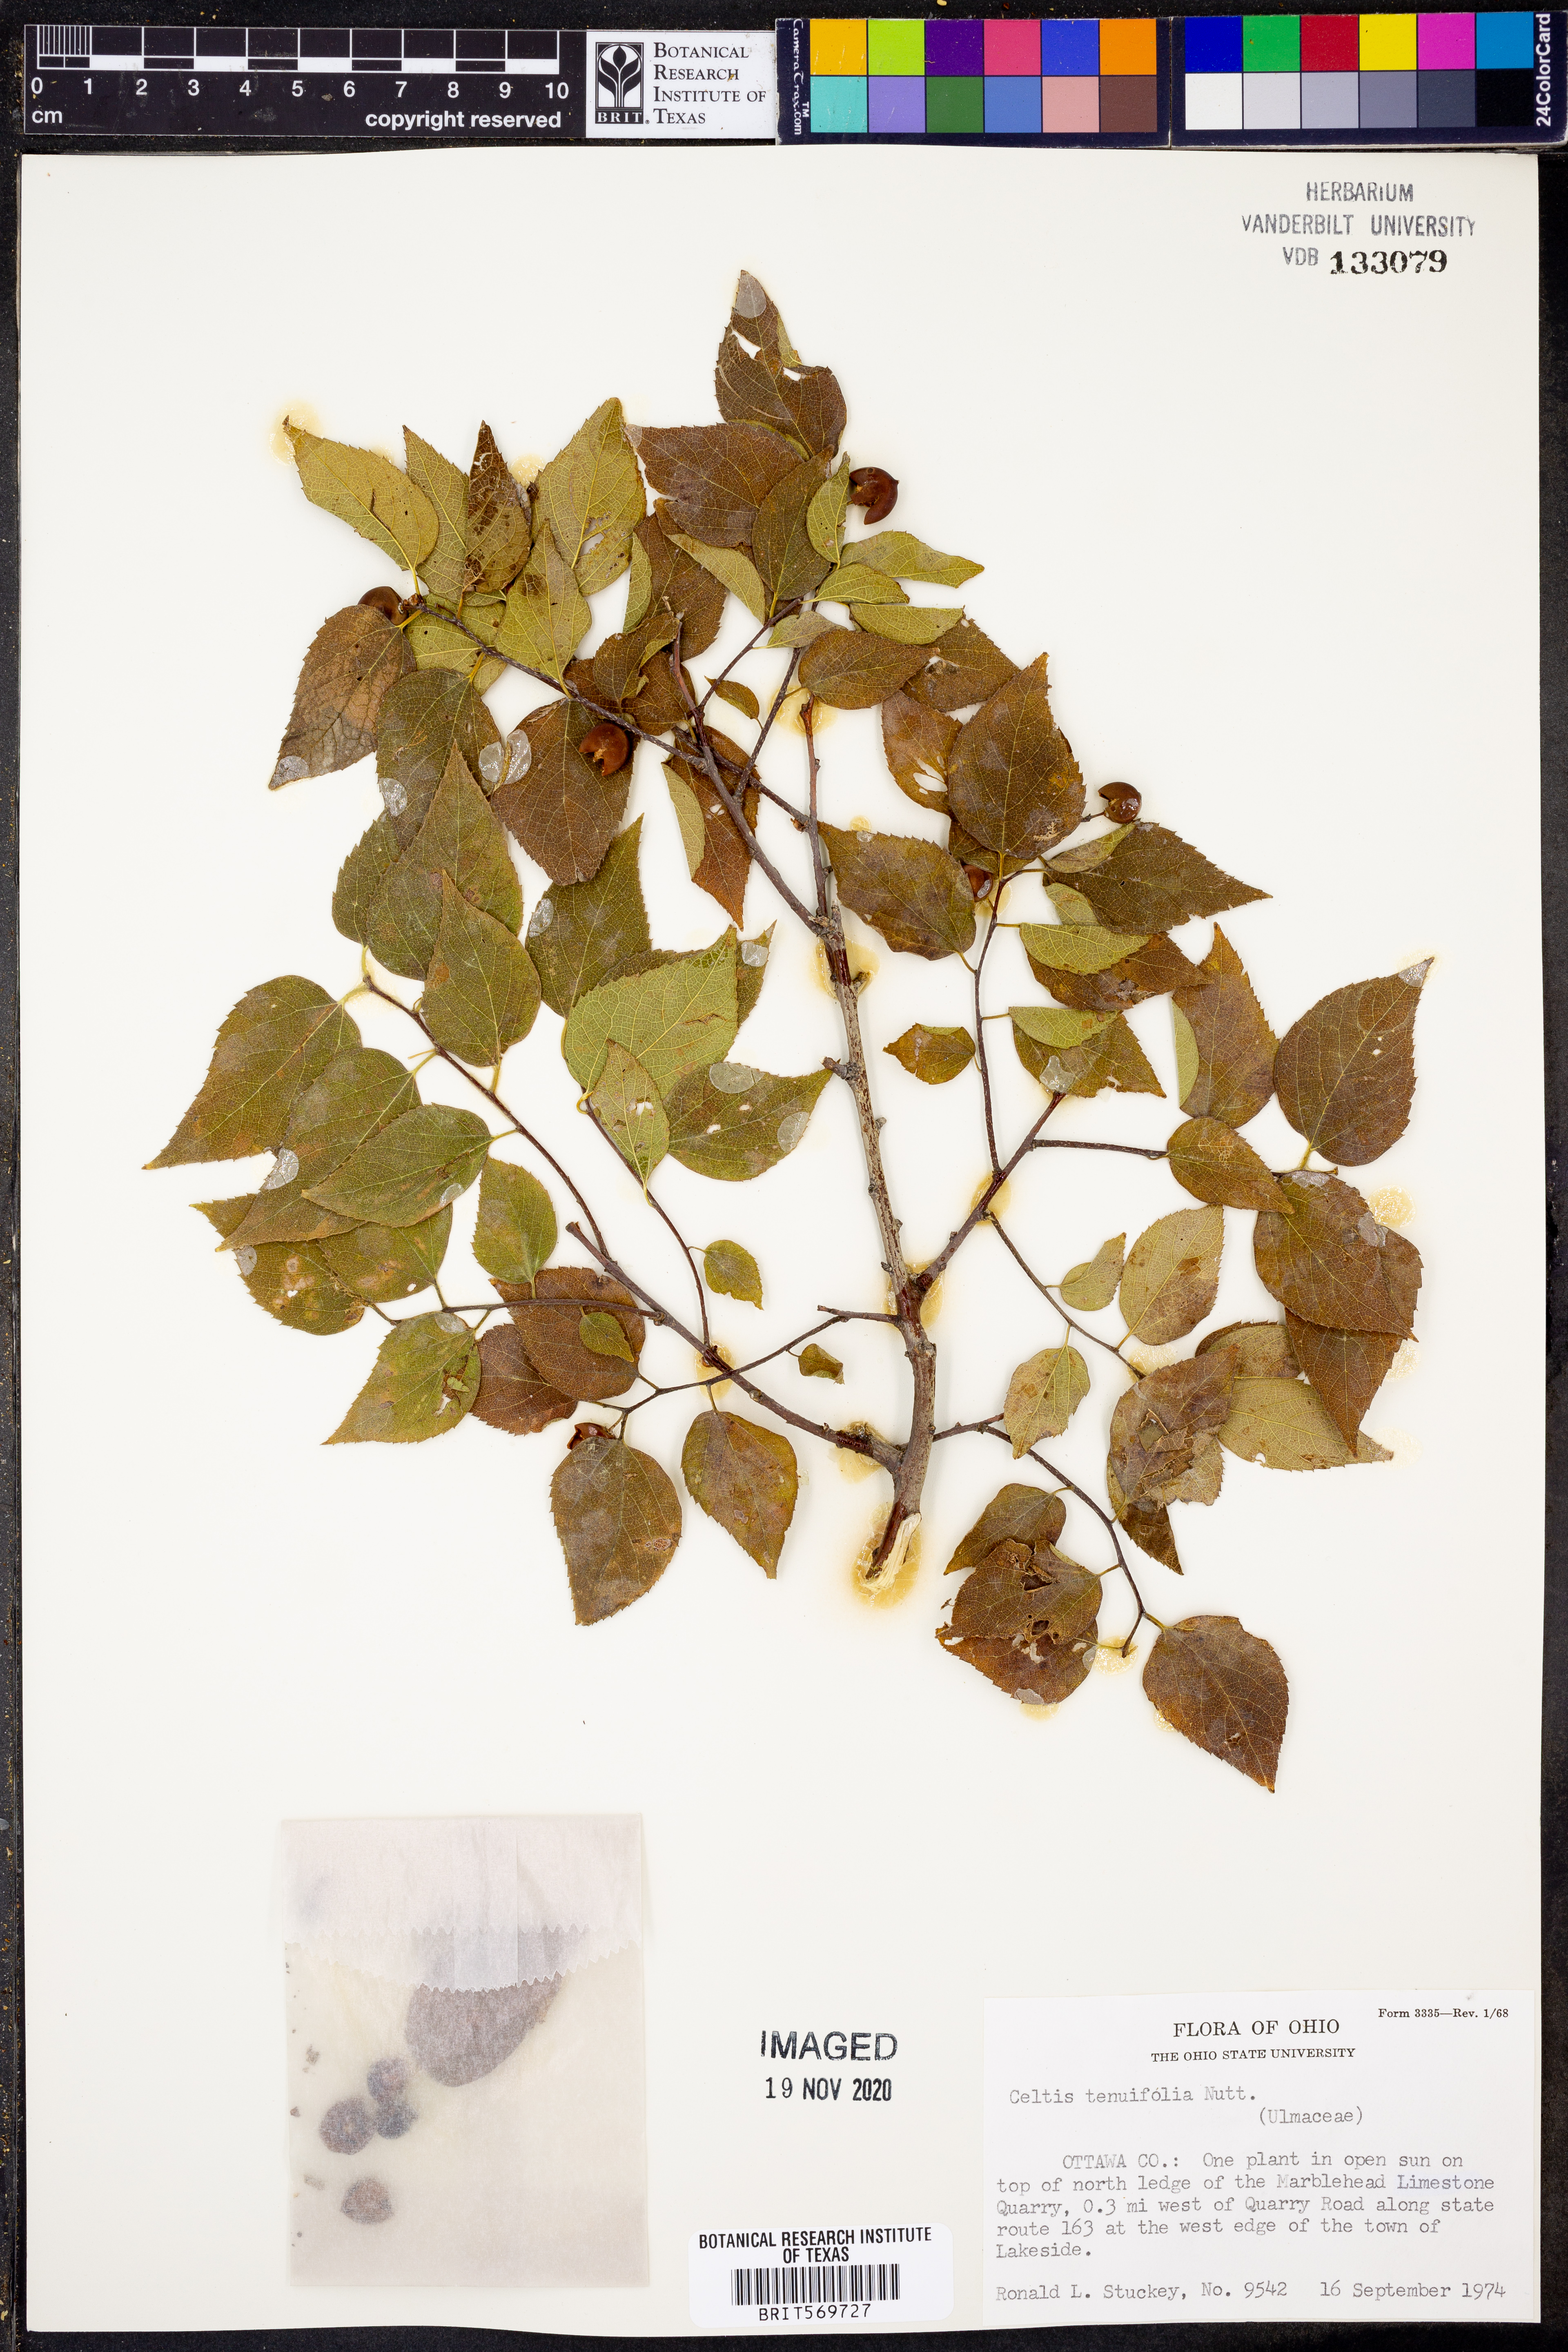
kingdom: Plantae
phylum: Tracheophyta
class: Magnoliopsida
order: Rosales
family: Cannabaceae
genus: Celtis
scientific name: Celtis tenuifolia
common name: Georgia hackberry
